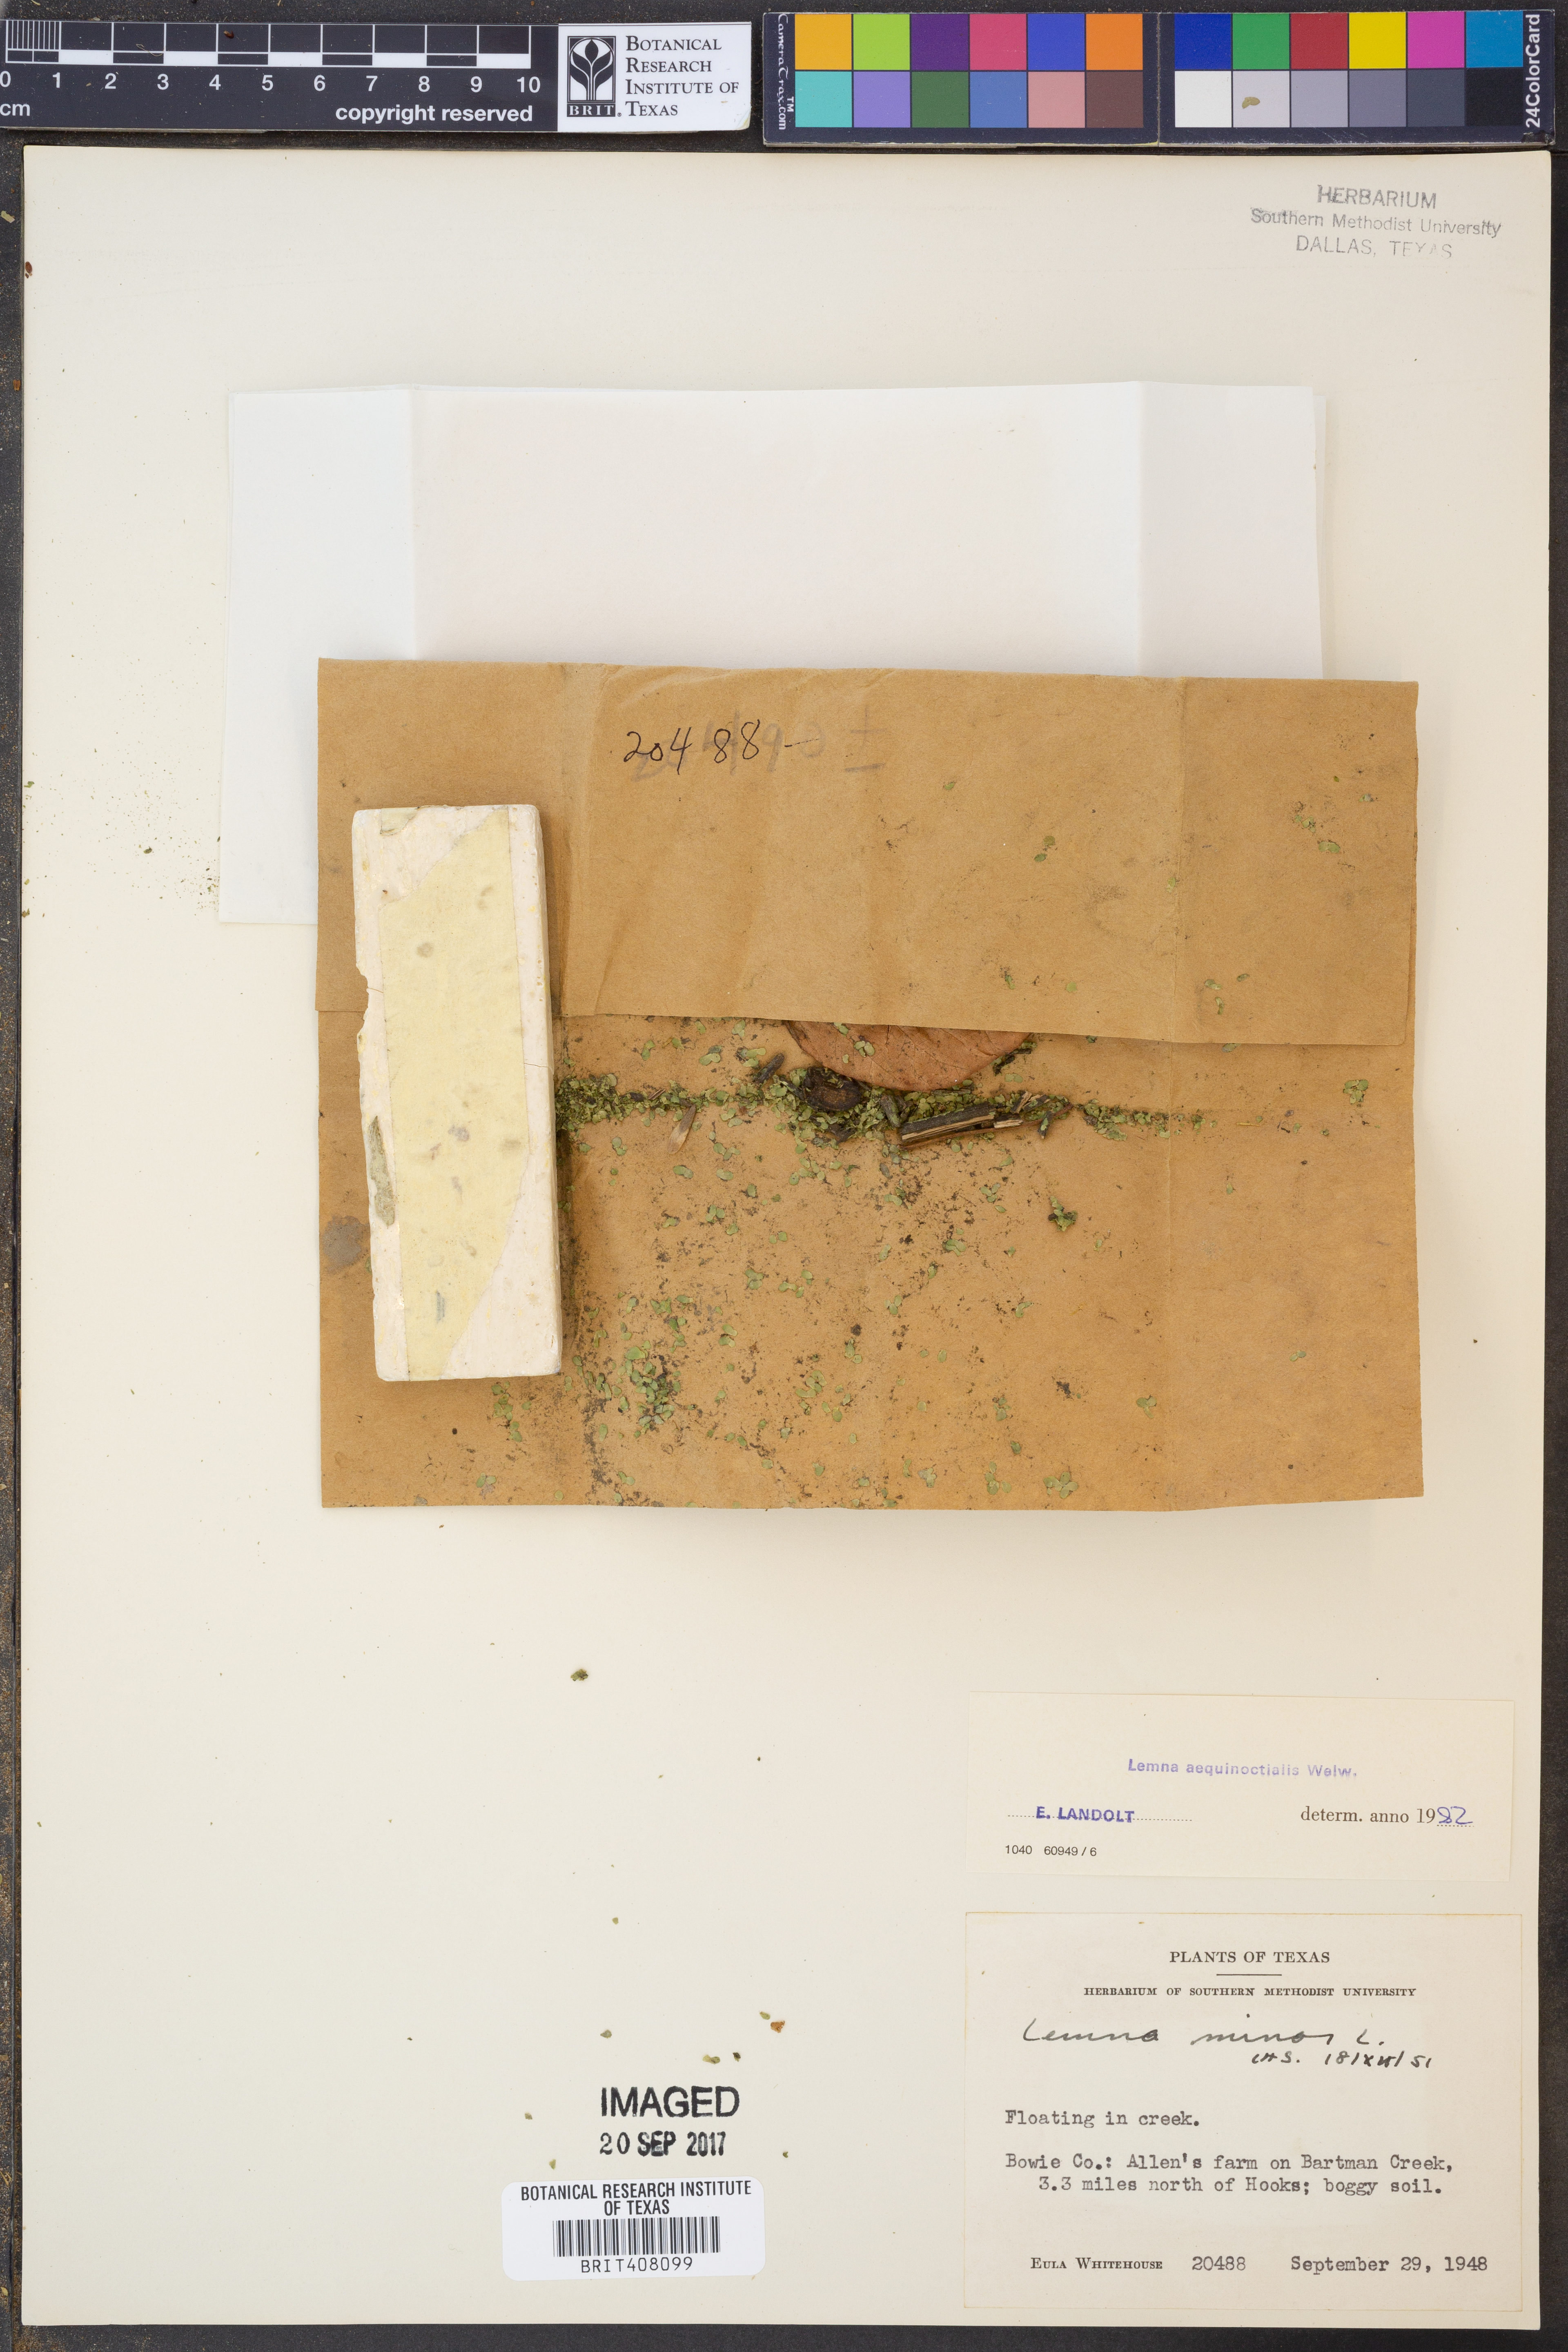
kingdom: Plantae
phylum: Tracheophyta
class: Liliopsida
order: Alismatales
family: Araceae
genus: Lemna
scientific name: Lemna aequinoctialis
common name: Duckweed
